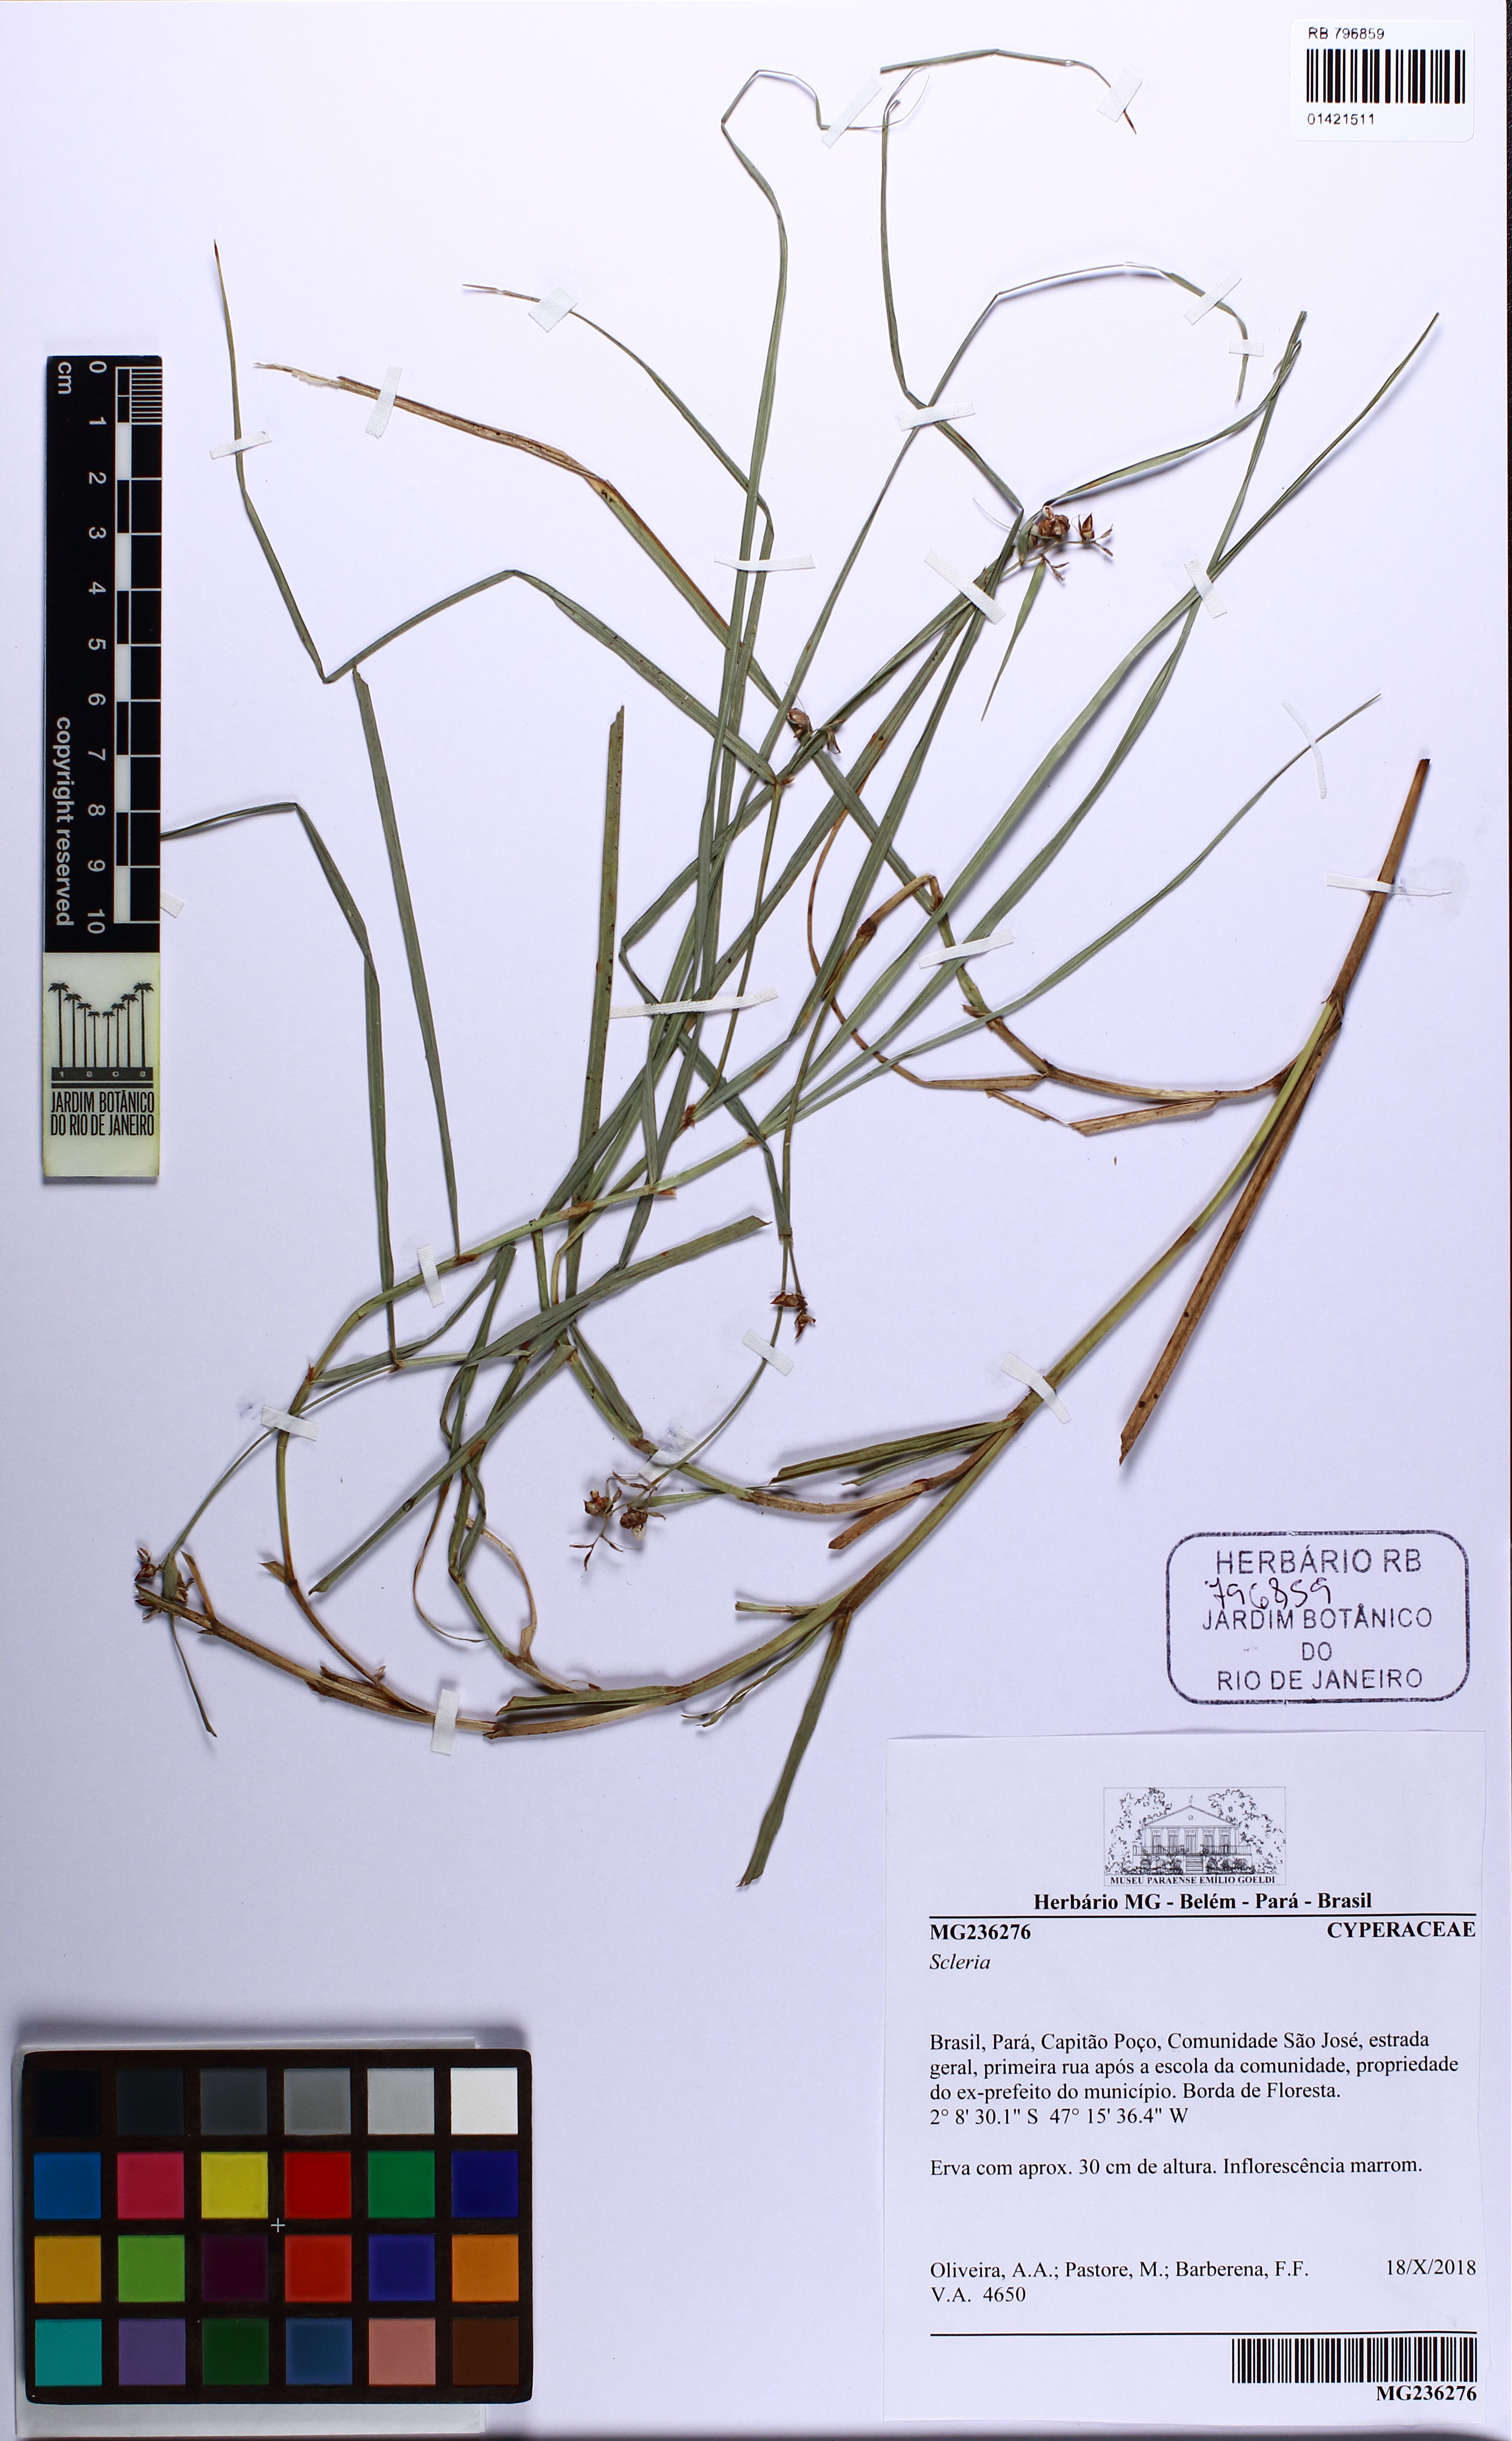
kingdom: Plantae
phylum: Tracheophyta
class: Liliopsida
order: Poales
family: Cyperaceae
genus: Scleria
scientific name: Scleria
